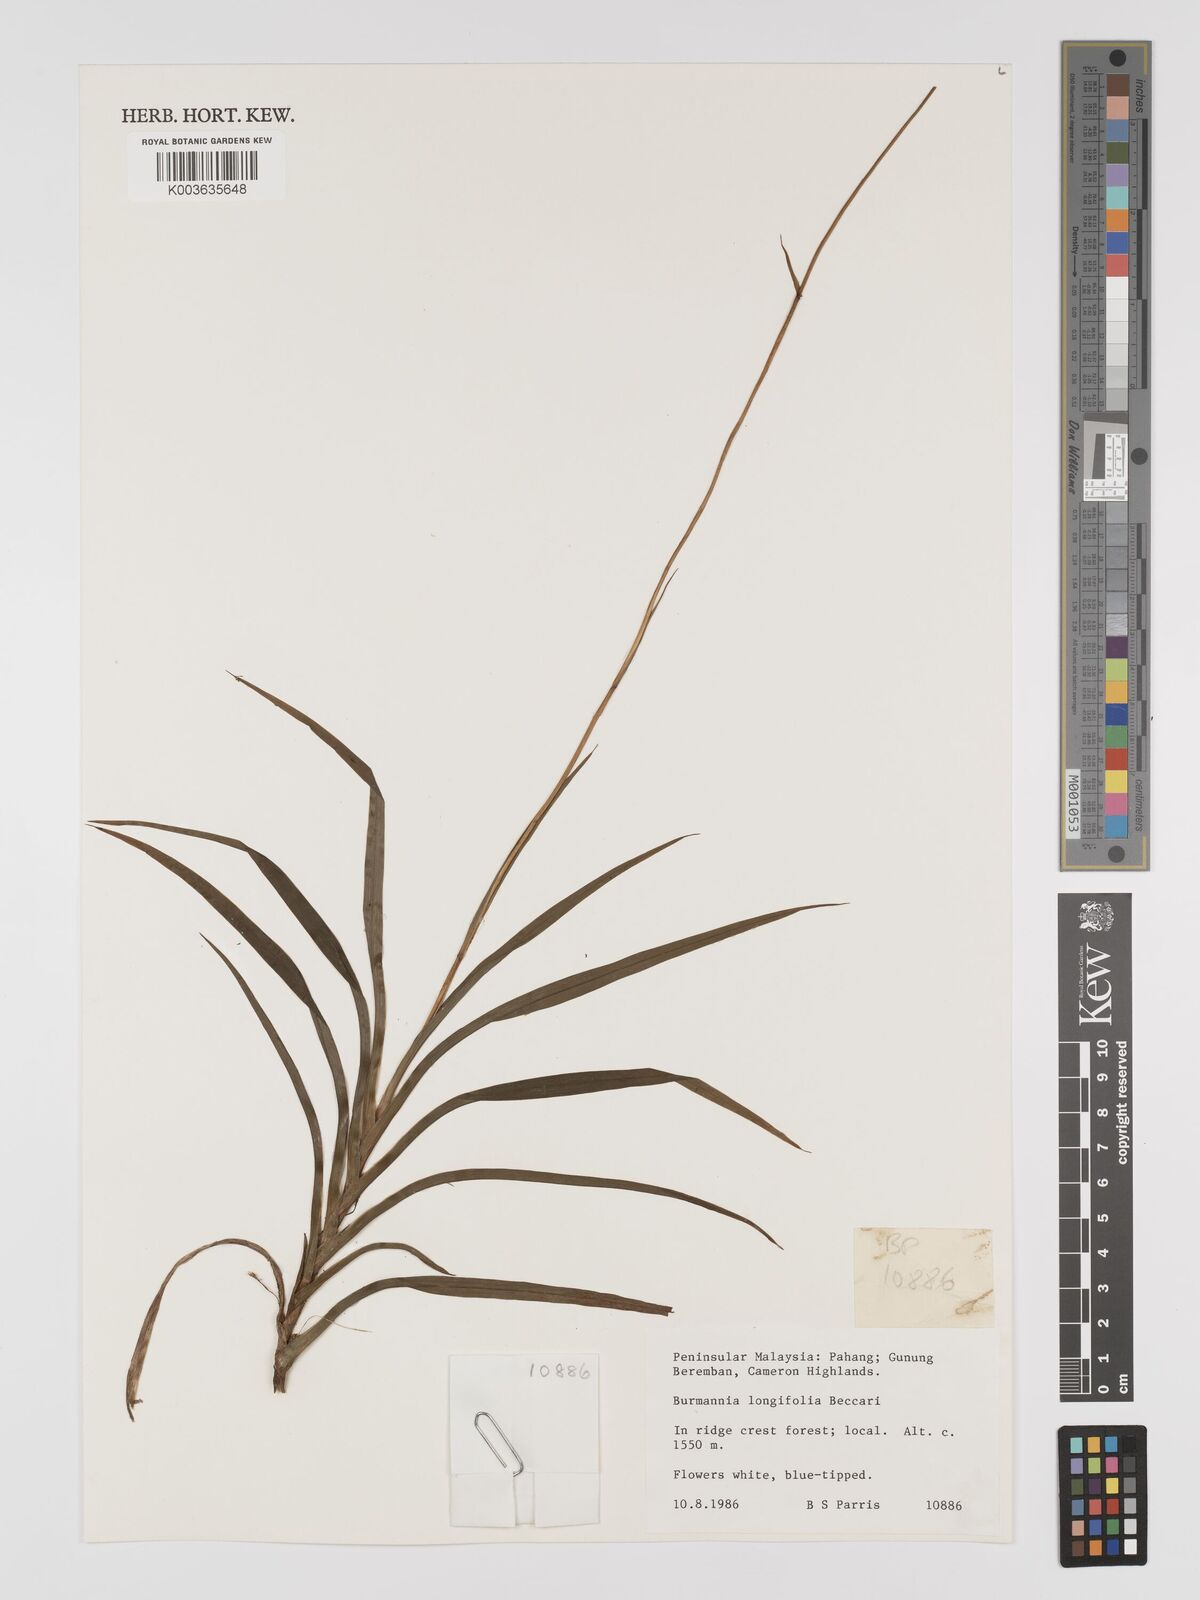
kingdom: Plantae
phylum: Tracheophyta
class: Liliopsida
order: Dioscoreales
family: Burmanniaceae
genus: Burmannia
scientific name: Burmannia longifolia
